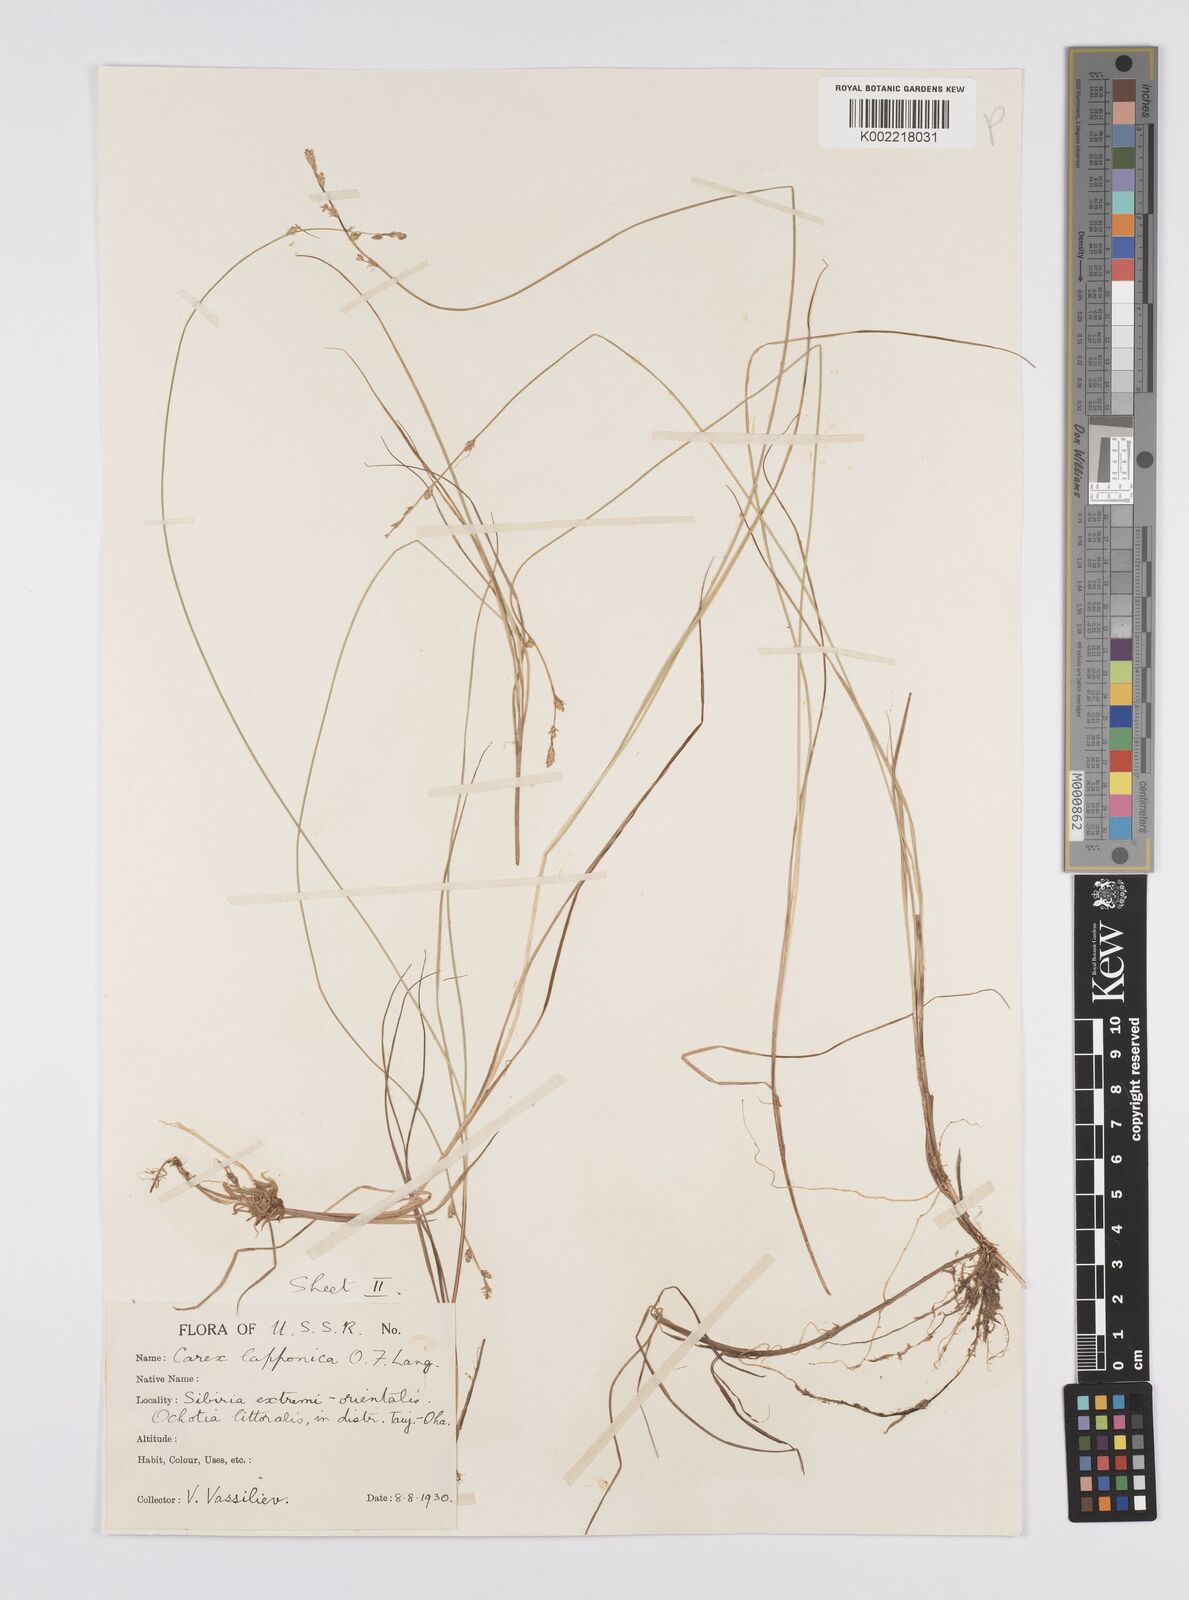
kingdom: Plantae
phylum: Tracheophyta
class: Liliopsida
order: Poales
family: Cyperaceae
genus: Carex
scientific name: Carex canescens
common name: White sedge
